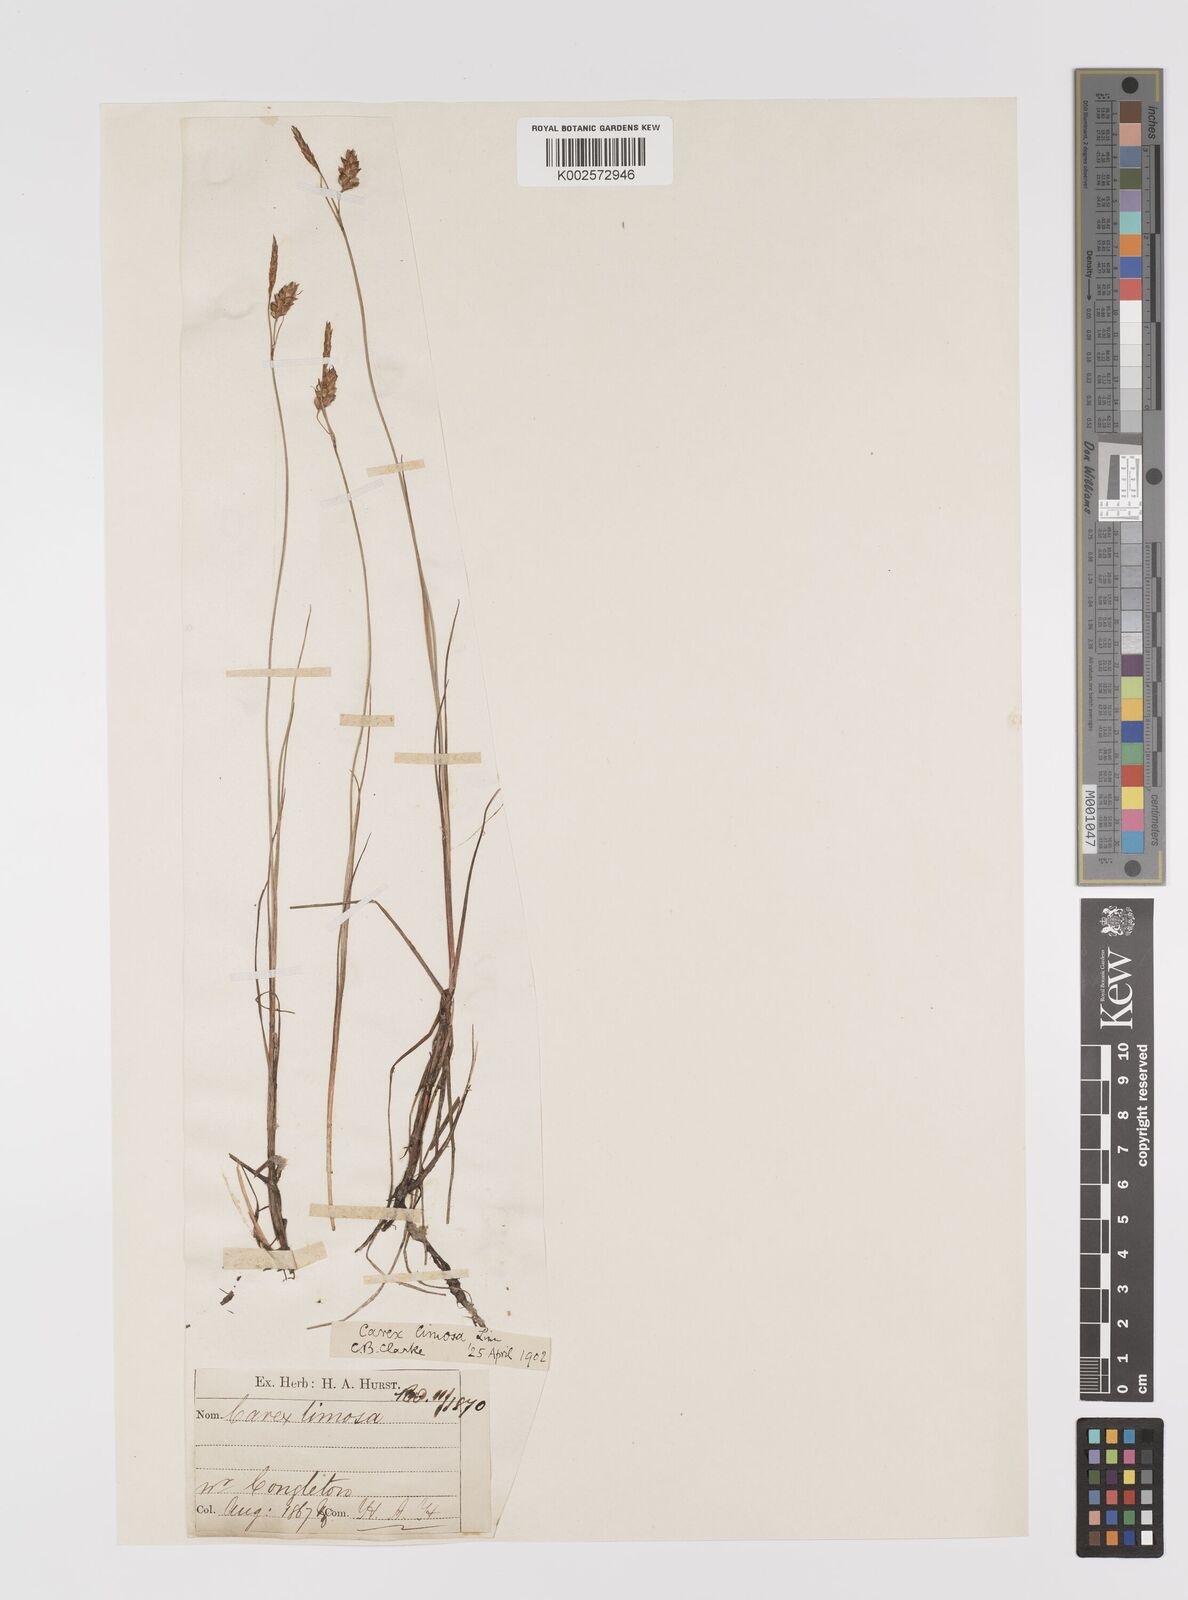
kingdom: Plantae
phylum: Tracheophyta
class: Liliopsida
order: Poales
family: Cyperaceae
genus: Carex
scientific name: Carex limosa
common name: Bog sedge
